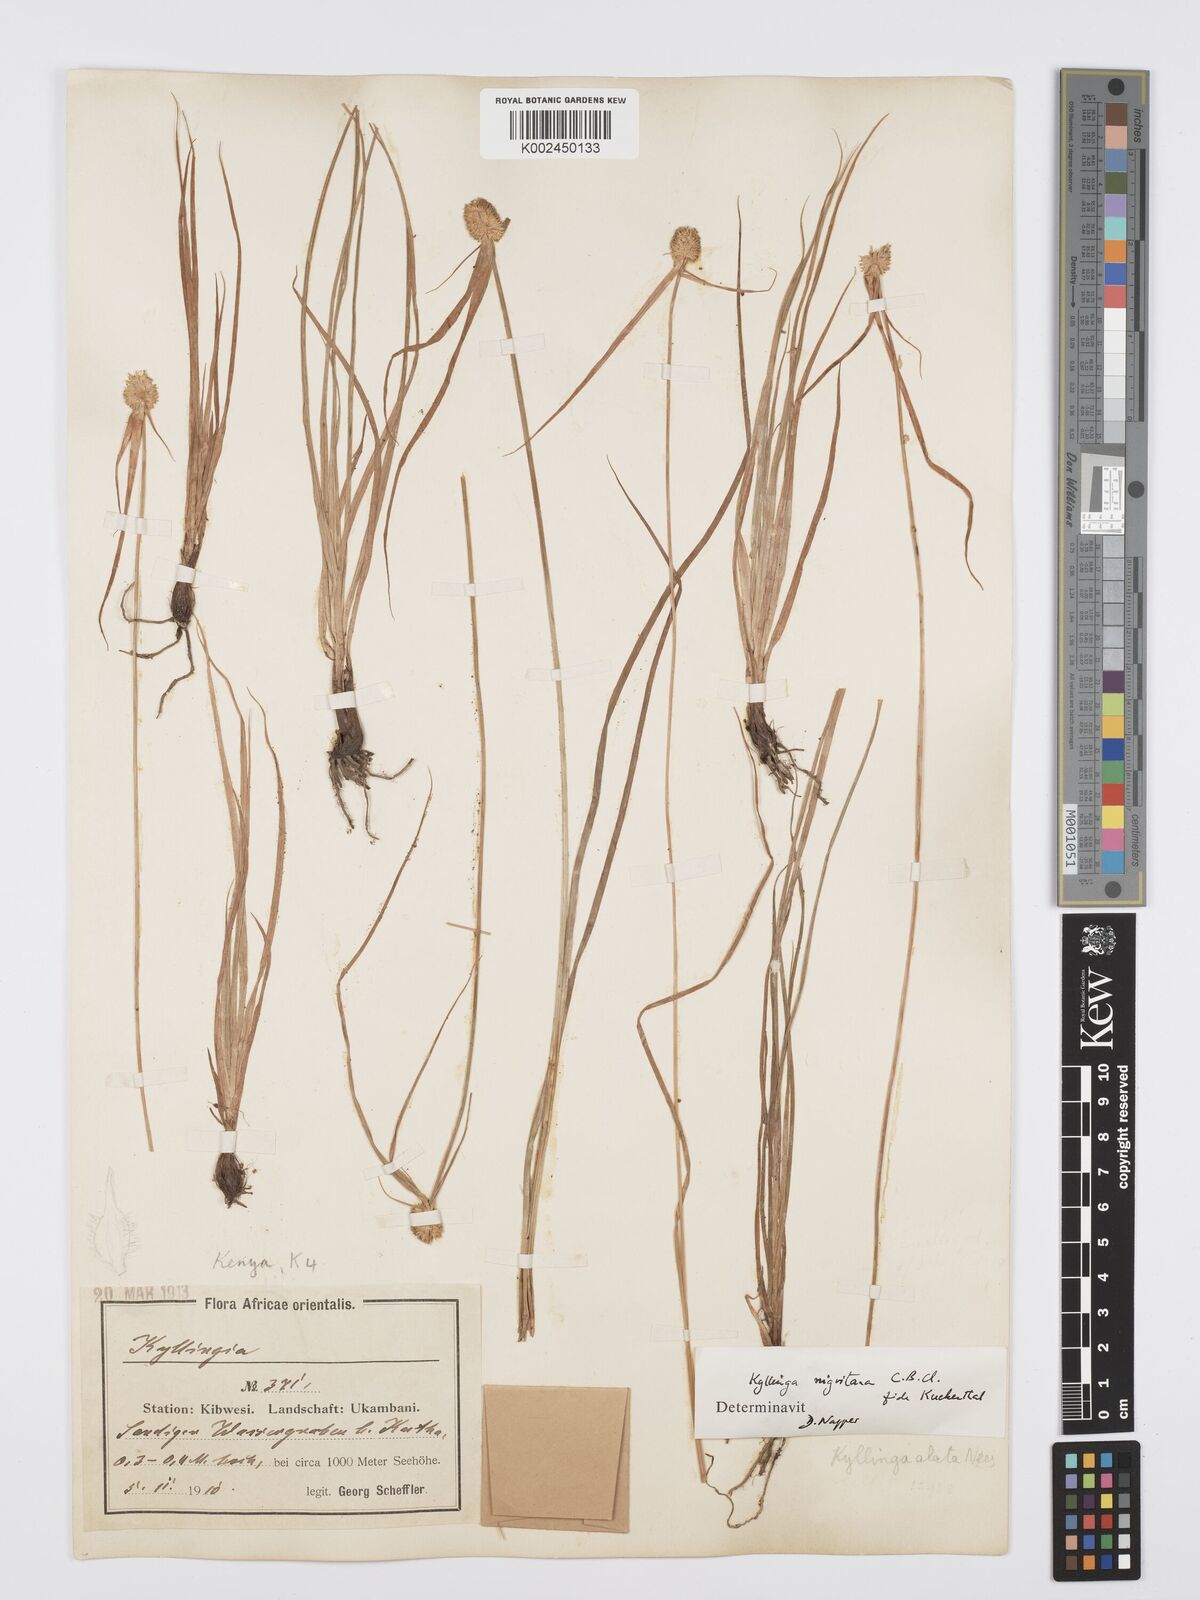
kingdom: Plantae
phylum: Tracheophyta
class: Liliopsida
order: Poales
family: Cyperaceae
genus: Cyperus
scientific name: Cyperus alatus
